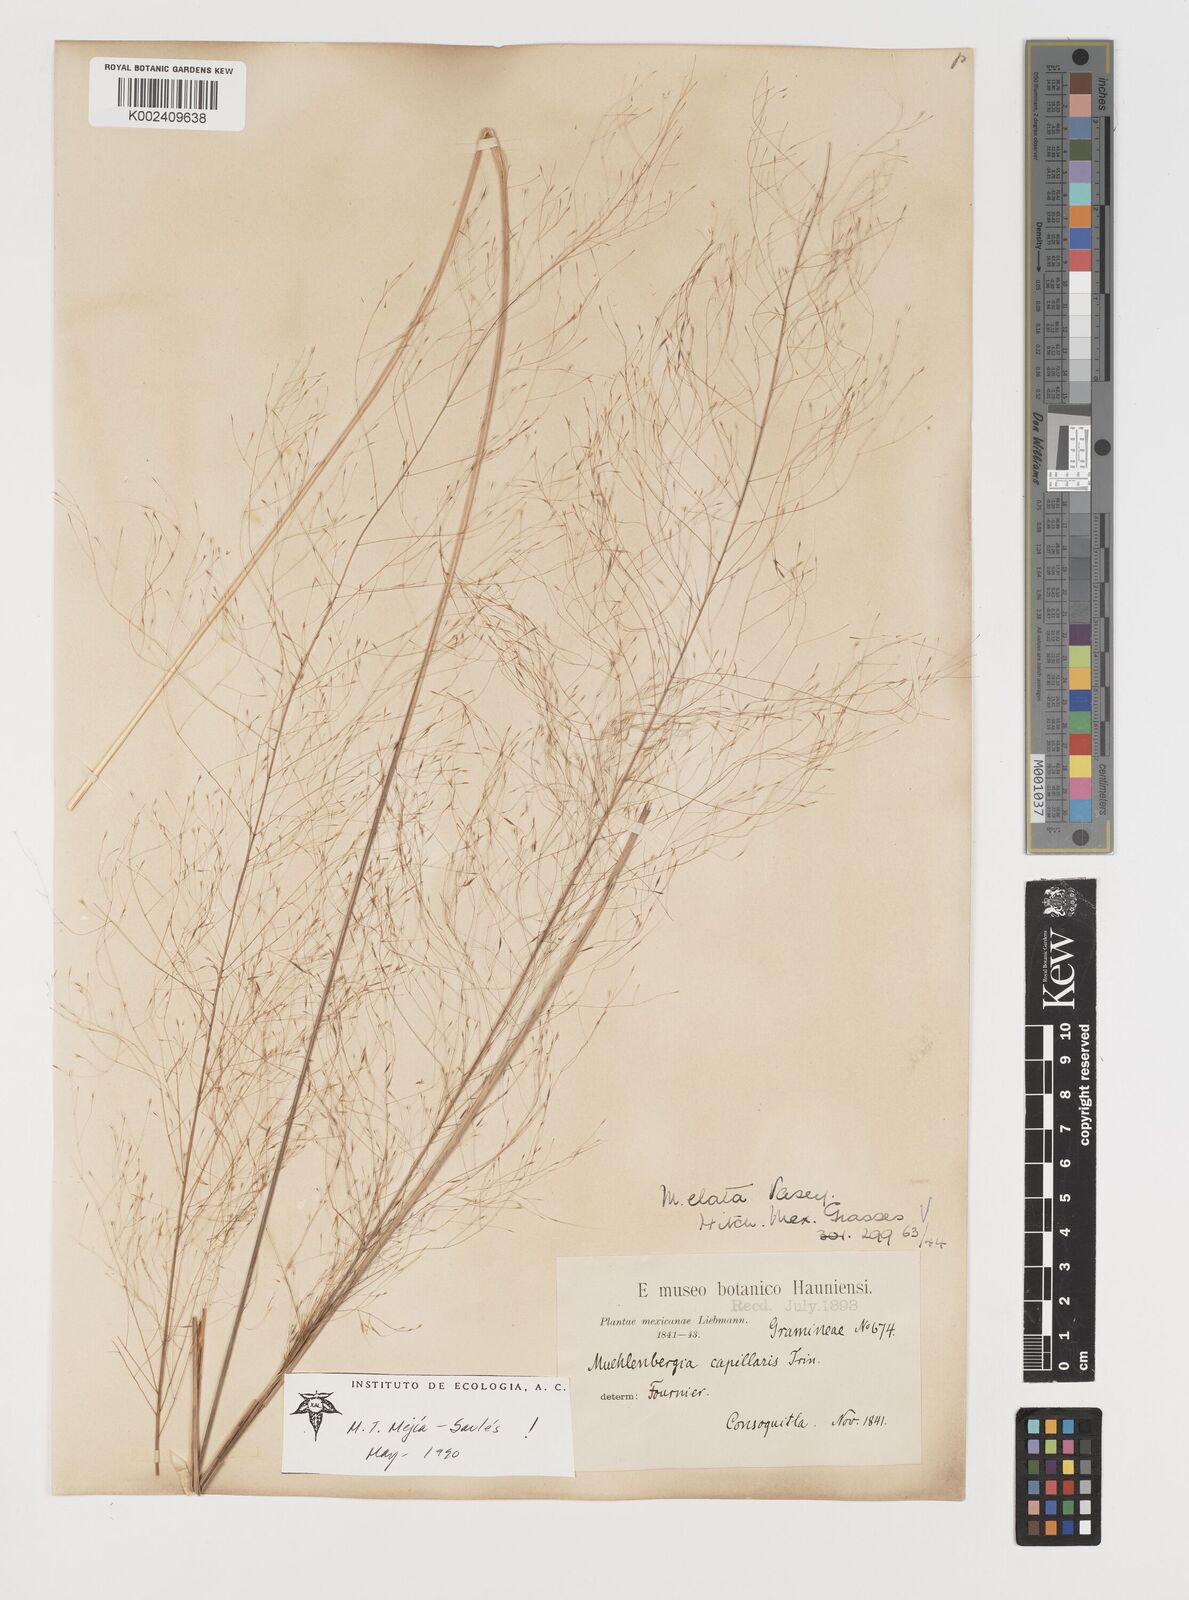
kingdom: Plantae
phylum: Tracheophyta
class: Liliopsida
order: Poales
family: Poaceae
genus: Muhlenbergia
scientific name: Muhlenbergia stricta
